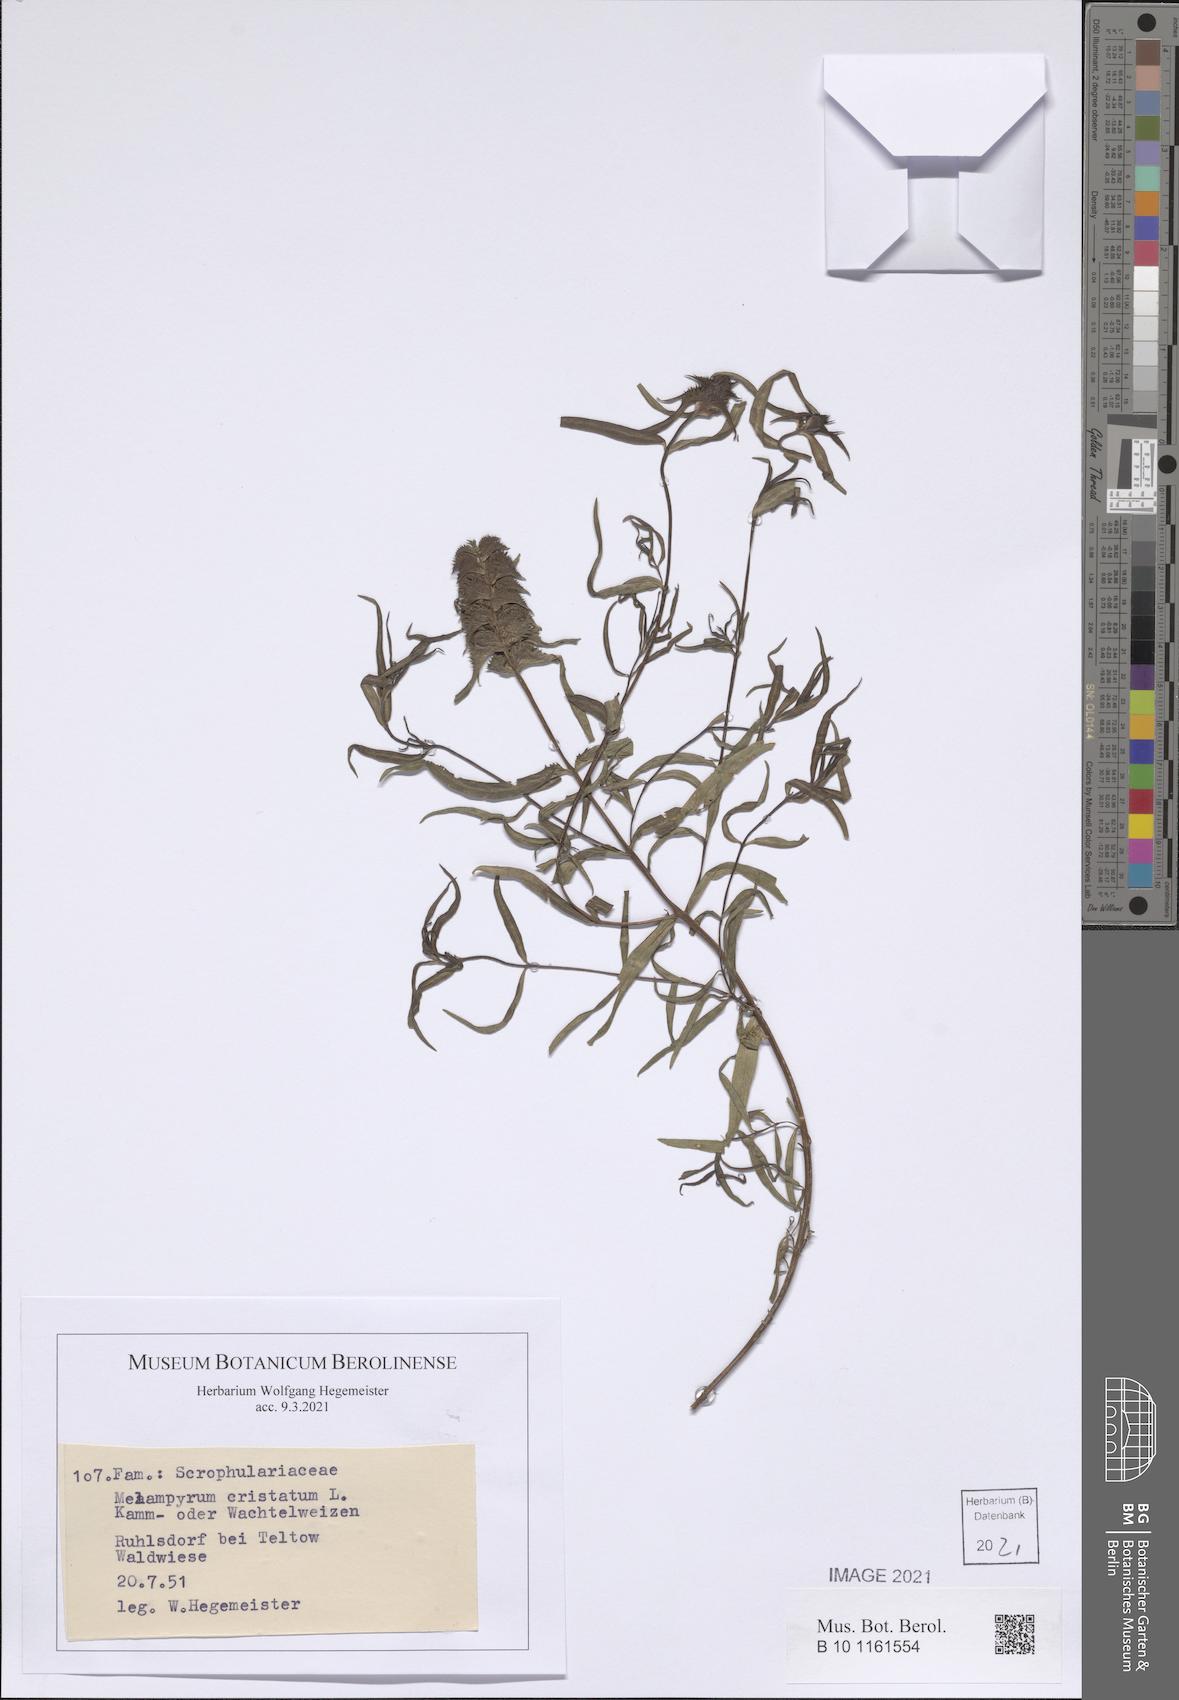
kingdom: Plantae
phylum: Tracheophyta
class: Magnoliopsida
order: Lamiales
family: Orobanchaceae
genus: Melampyrum
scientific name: Melampyrum cristatum
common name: Crested cow-wheat
